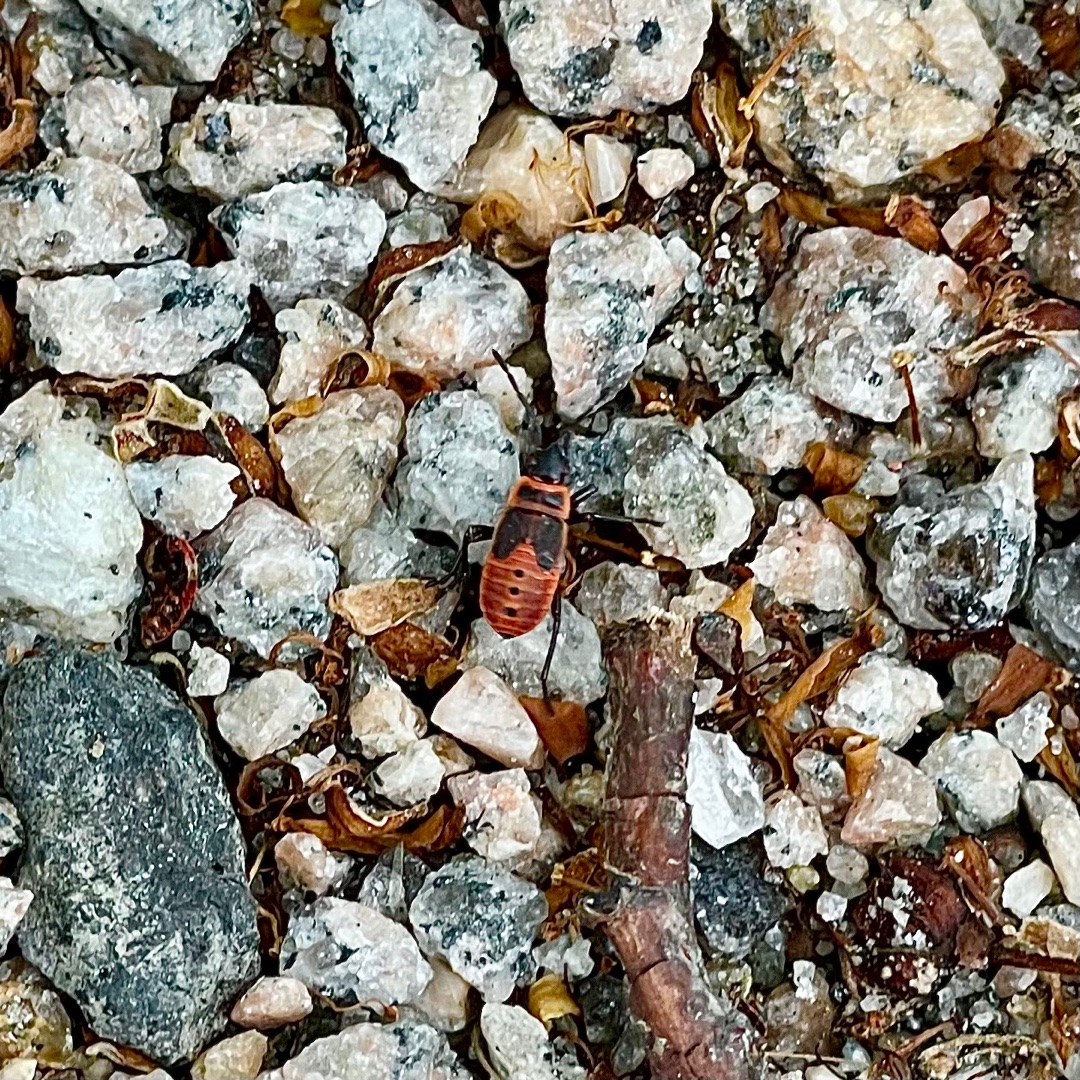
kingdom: Animalia
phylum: Arthropoda
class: Insecta
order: Hemiptera
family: Pyrrhocoridae
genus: Pyrrhocoris
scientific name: Pyrrhocoris apterus
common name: Ildtæge
